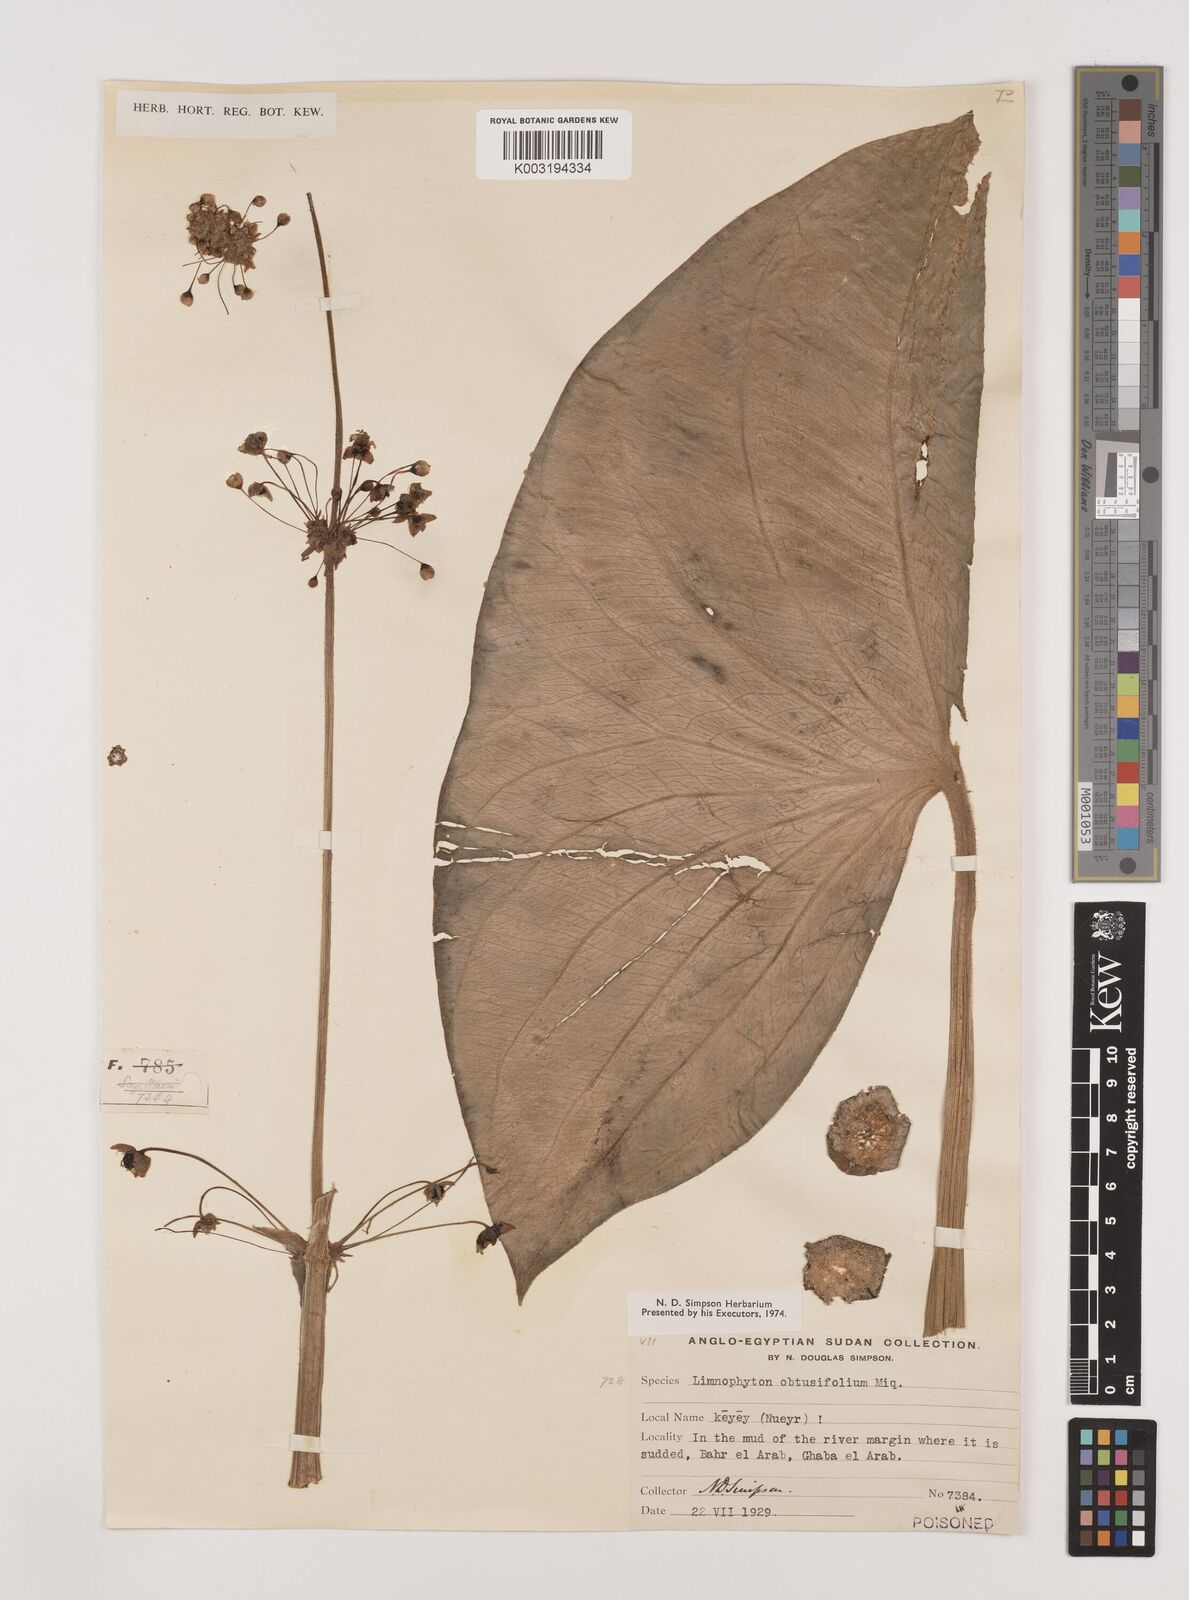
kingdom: Plantae
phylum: Tracheophyta
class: Liliopsida
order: Alismatales
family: Alismataceae
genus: Limnophyton
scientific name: Limnophyton angolense
